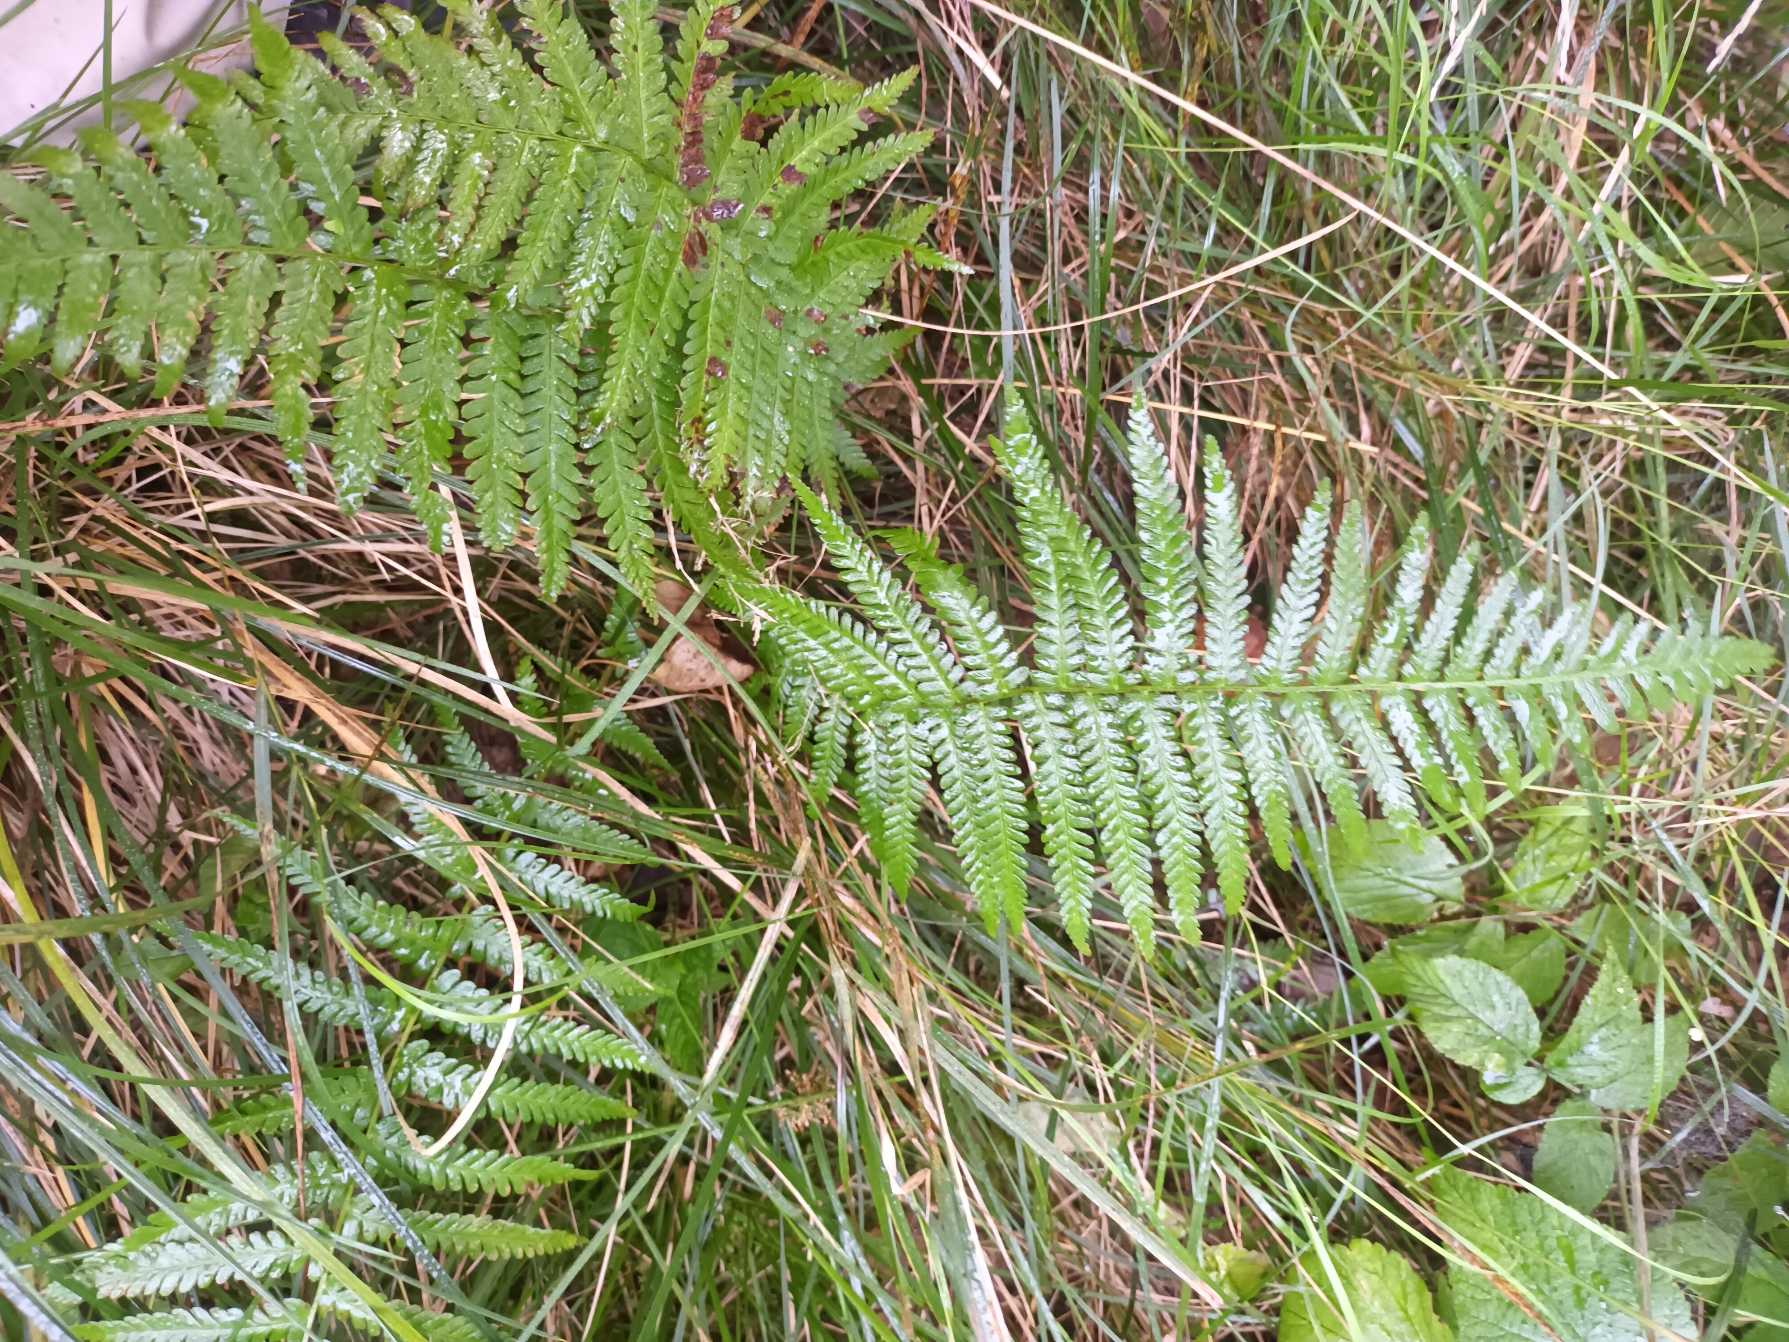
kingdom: Plantae
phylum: Tracheophyta
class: Polypodiopsida
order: Polypodiales
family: Dryopteridaceae
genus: Dryopteris
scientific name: Dryopteris filix-mas
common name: Almindelig mangeløv
